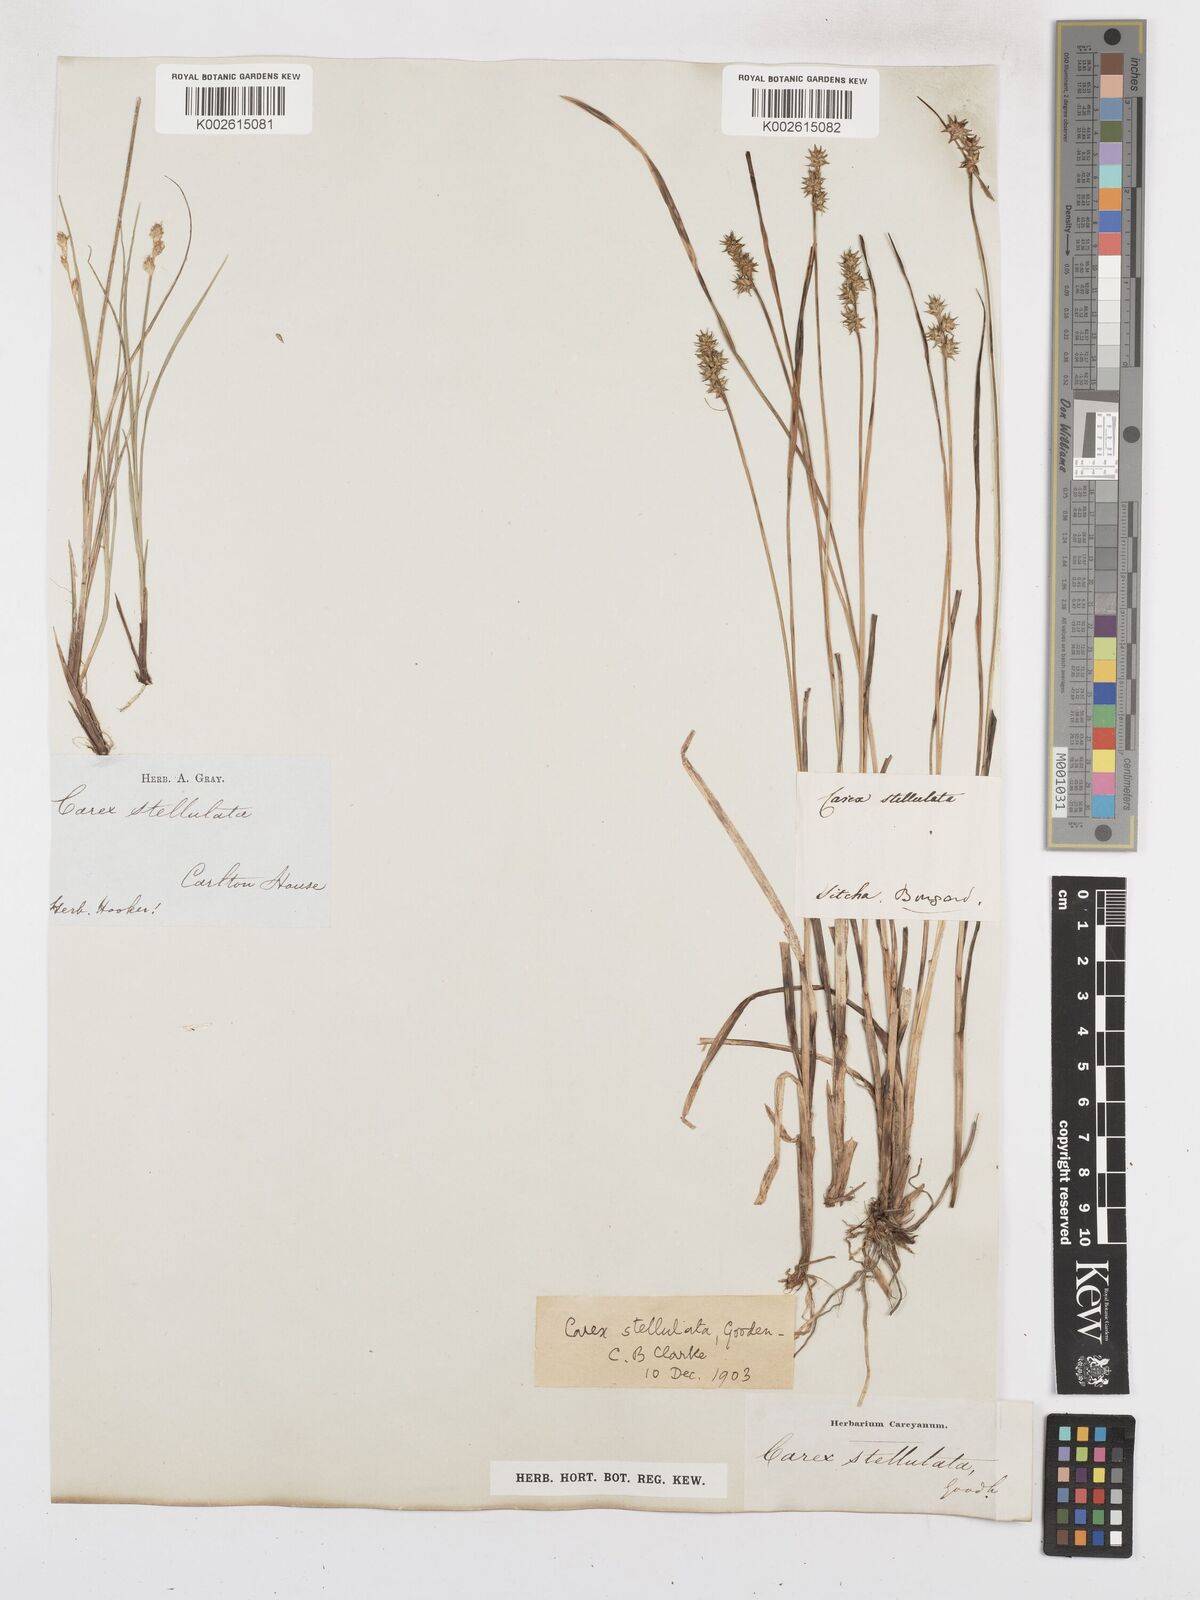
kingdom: Plantae
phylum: Tracheophyta
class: Liliopsida
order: Poales
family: Cyperaceae
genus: Carex
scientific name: Carex echinata
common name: Star sedge
